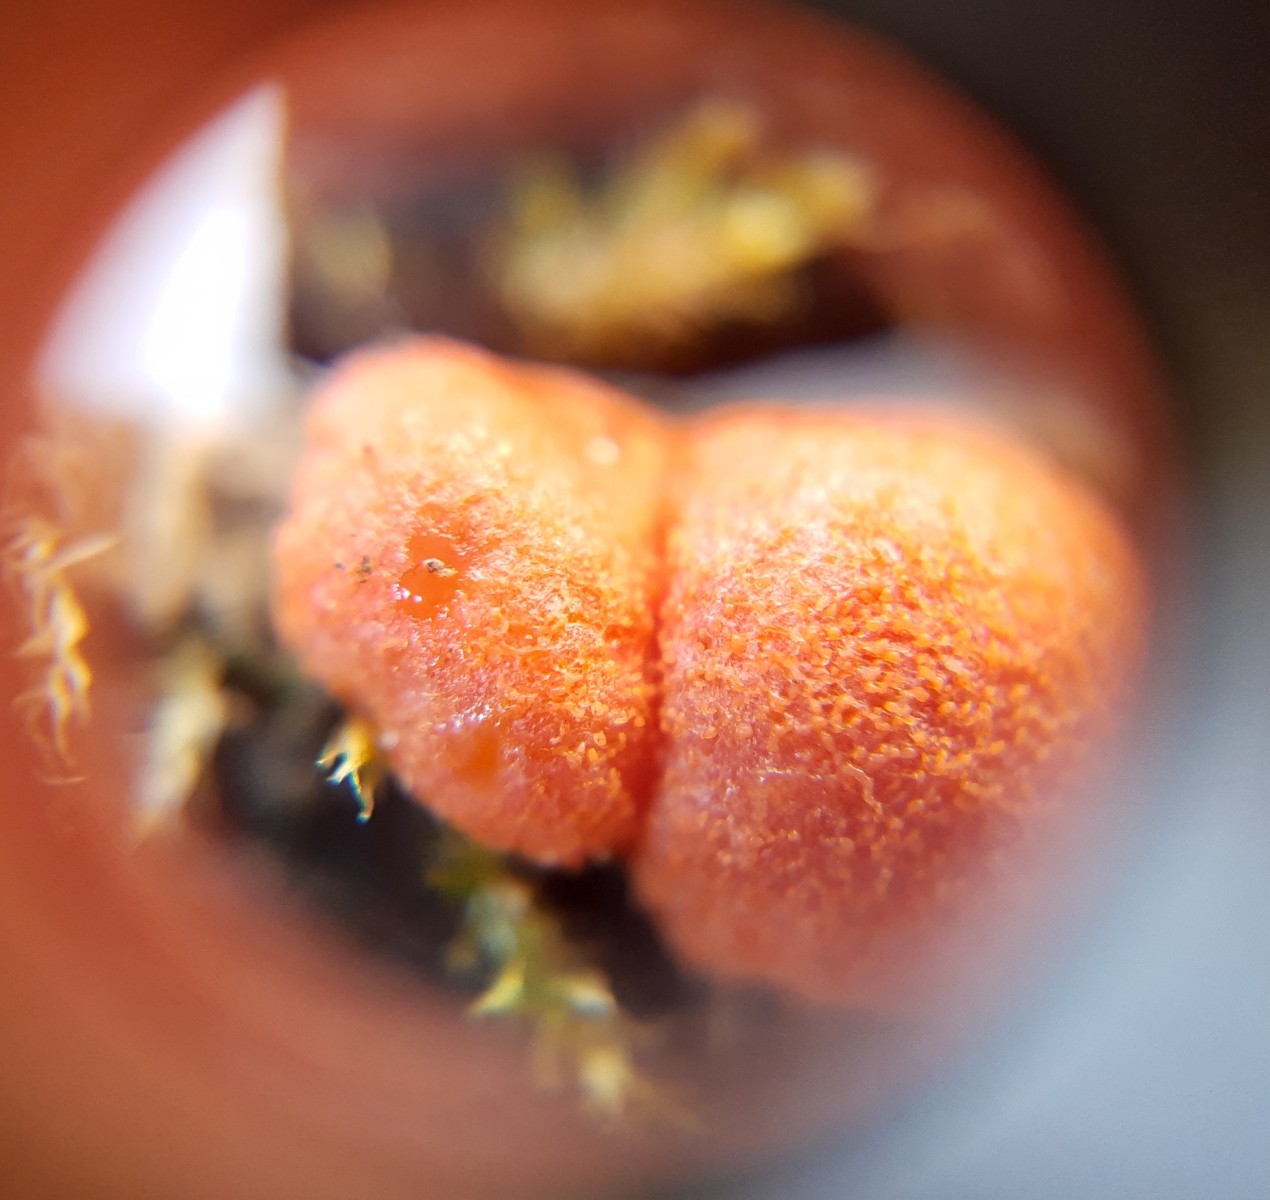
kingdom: Protozoa
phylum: Mycetozoa
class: Myxomycetes
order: Cribrariales
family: Tubiferaceae
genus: Lycogala
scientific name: Lycogala epidendrum
